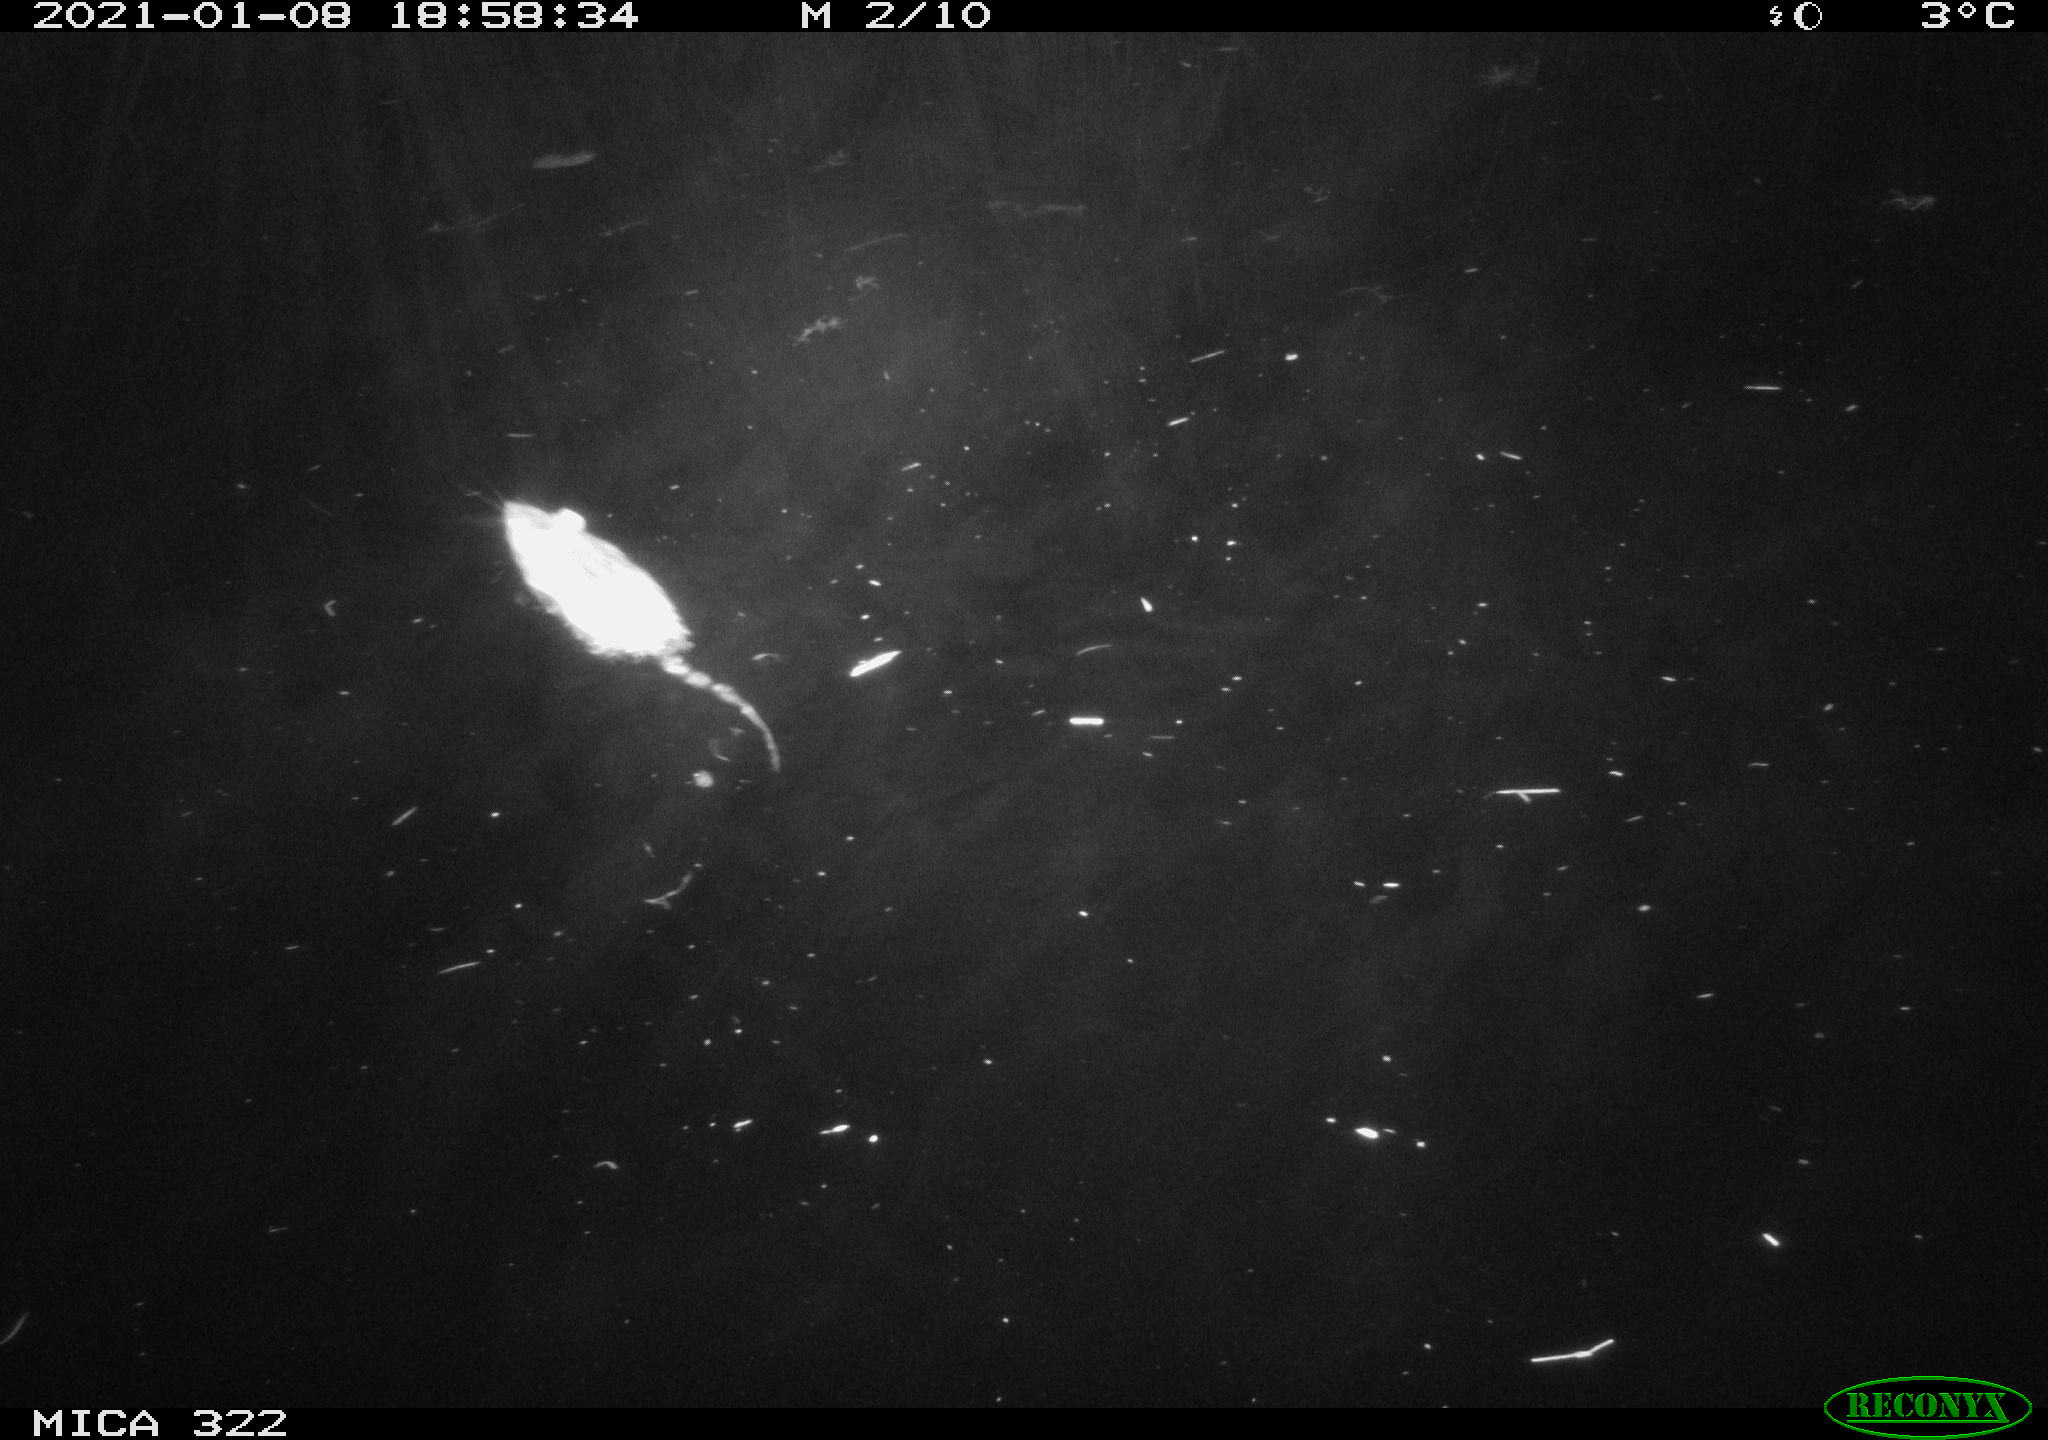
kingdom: Animalia
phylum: Chordata
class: Mammalia
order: Rodentia
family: Muridae
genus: Rattus
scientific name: Rattus norvegicus
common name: Brown rat
